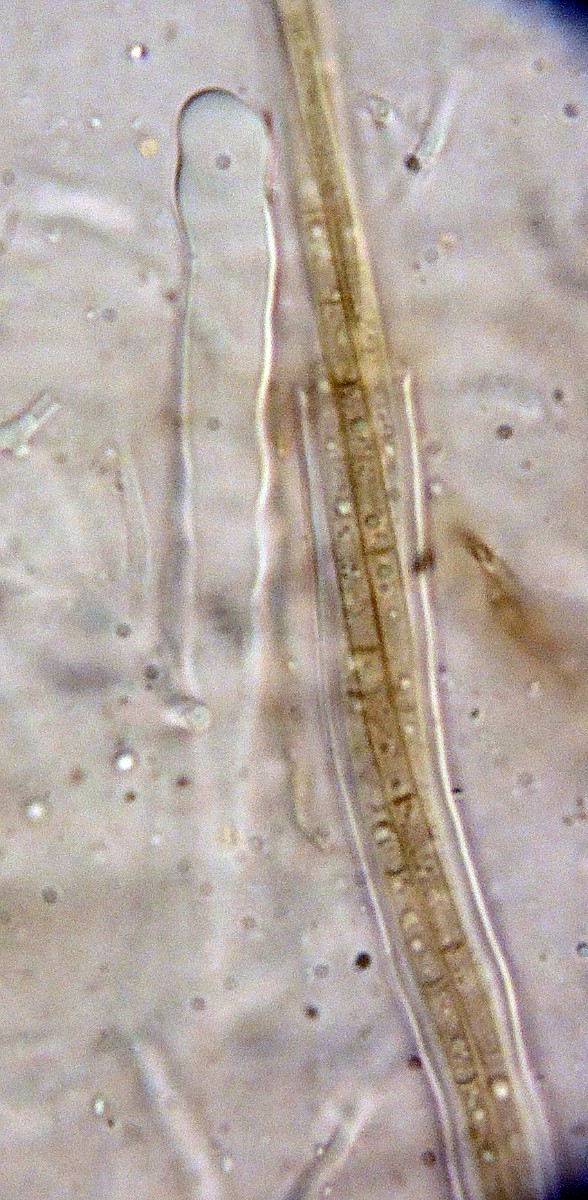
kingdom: Fungi
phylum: Ascomycota
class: Dothideomycetes
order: Mytilinidiales
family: Mytilinidiaceae
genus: Mytilinidion
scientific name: Mytilinidion rhenanum
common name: almindelig kulmusling
